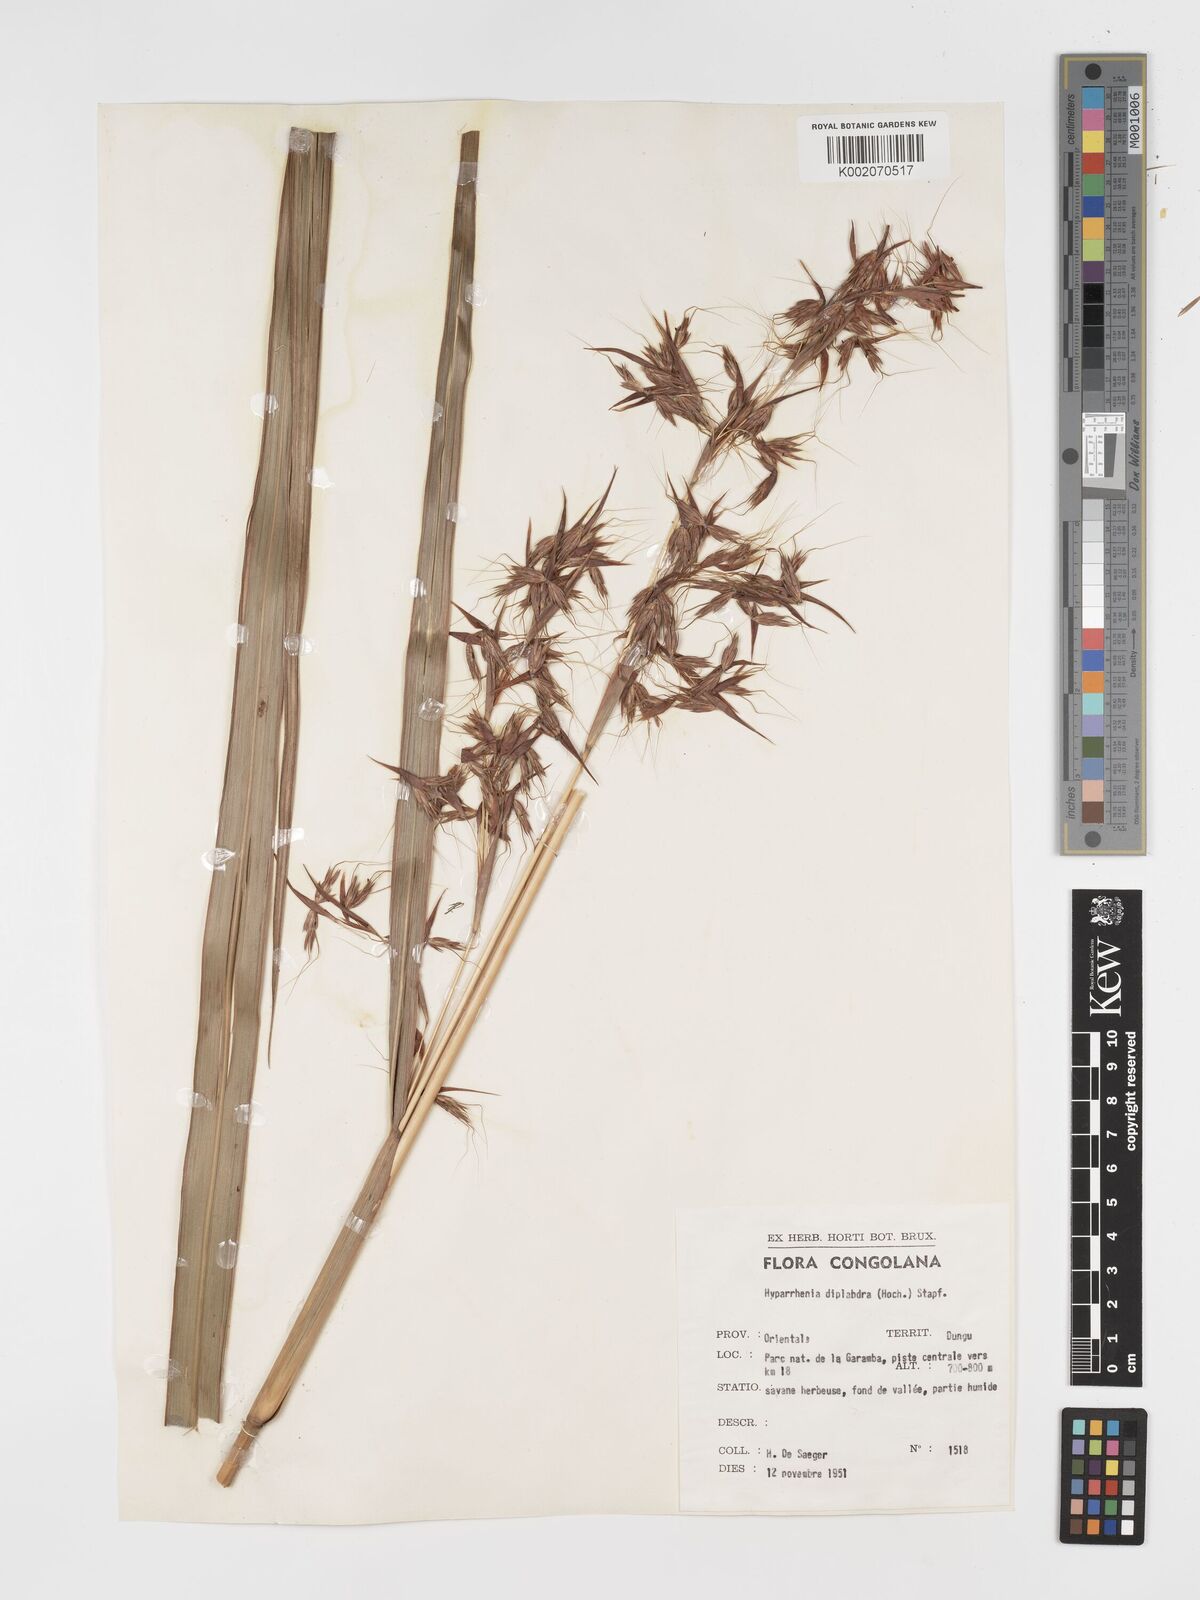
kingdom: Plantae
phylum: Tracheophyta
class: Liliopsida
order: Poales
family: Poaceae
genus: Hyparrhenia
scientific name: Hyparrhenia diplandra
